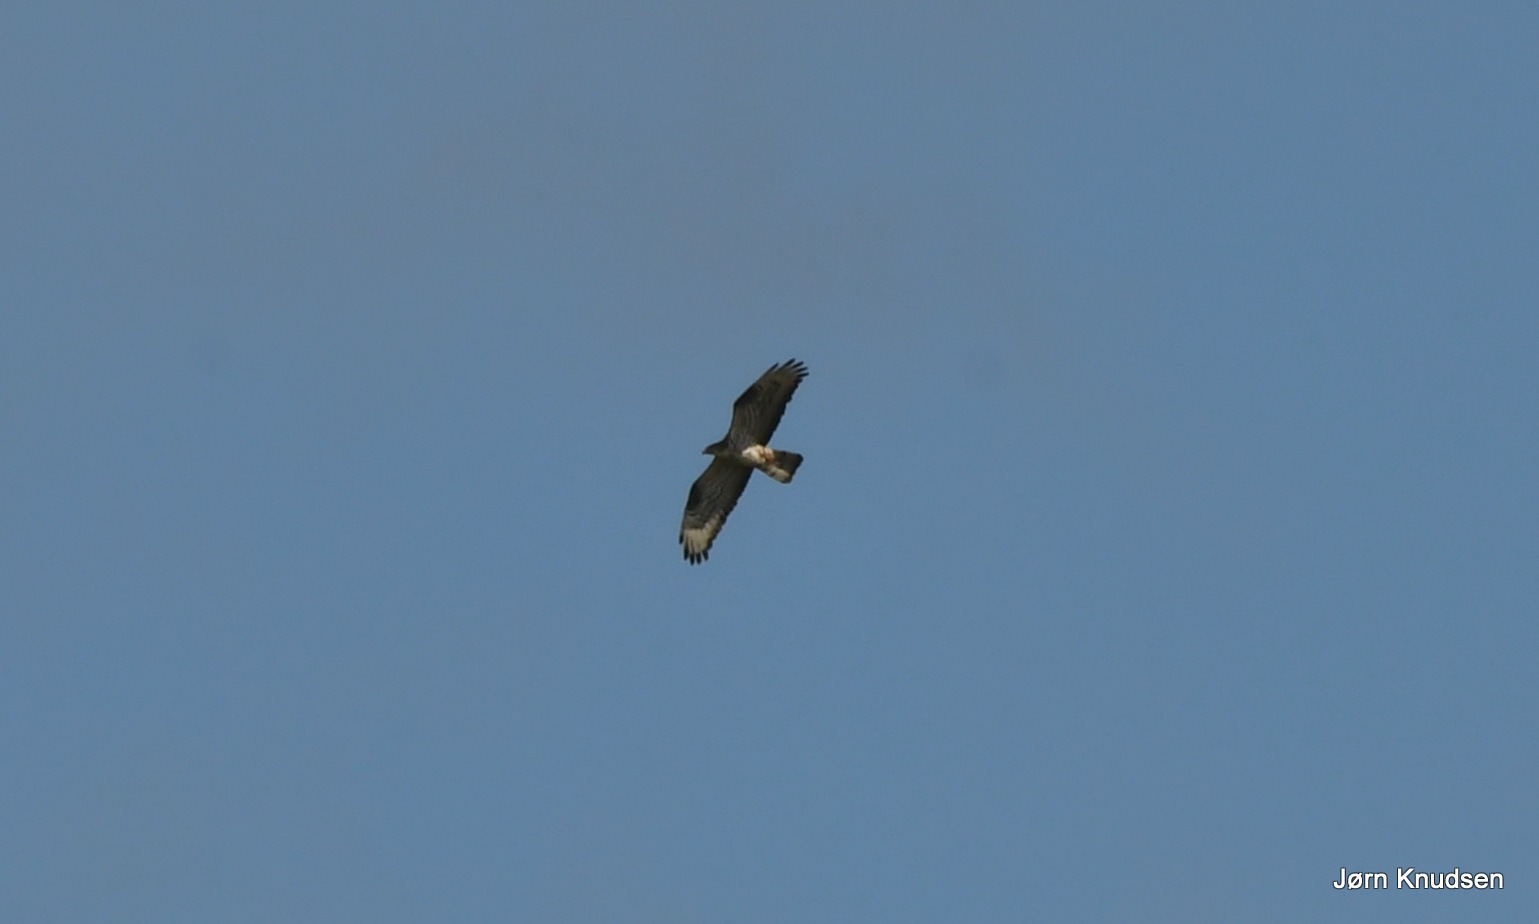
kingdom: Animalia
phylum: Chordata
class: Aves
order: Accipitriformes
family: Accipitridae
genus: Pernis
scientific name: Pernis apivorus
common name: Hvepsevåge
